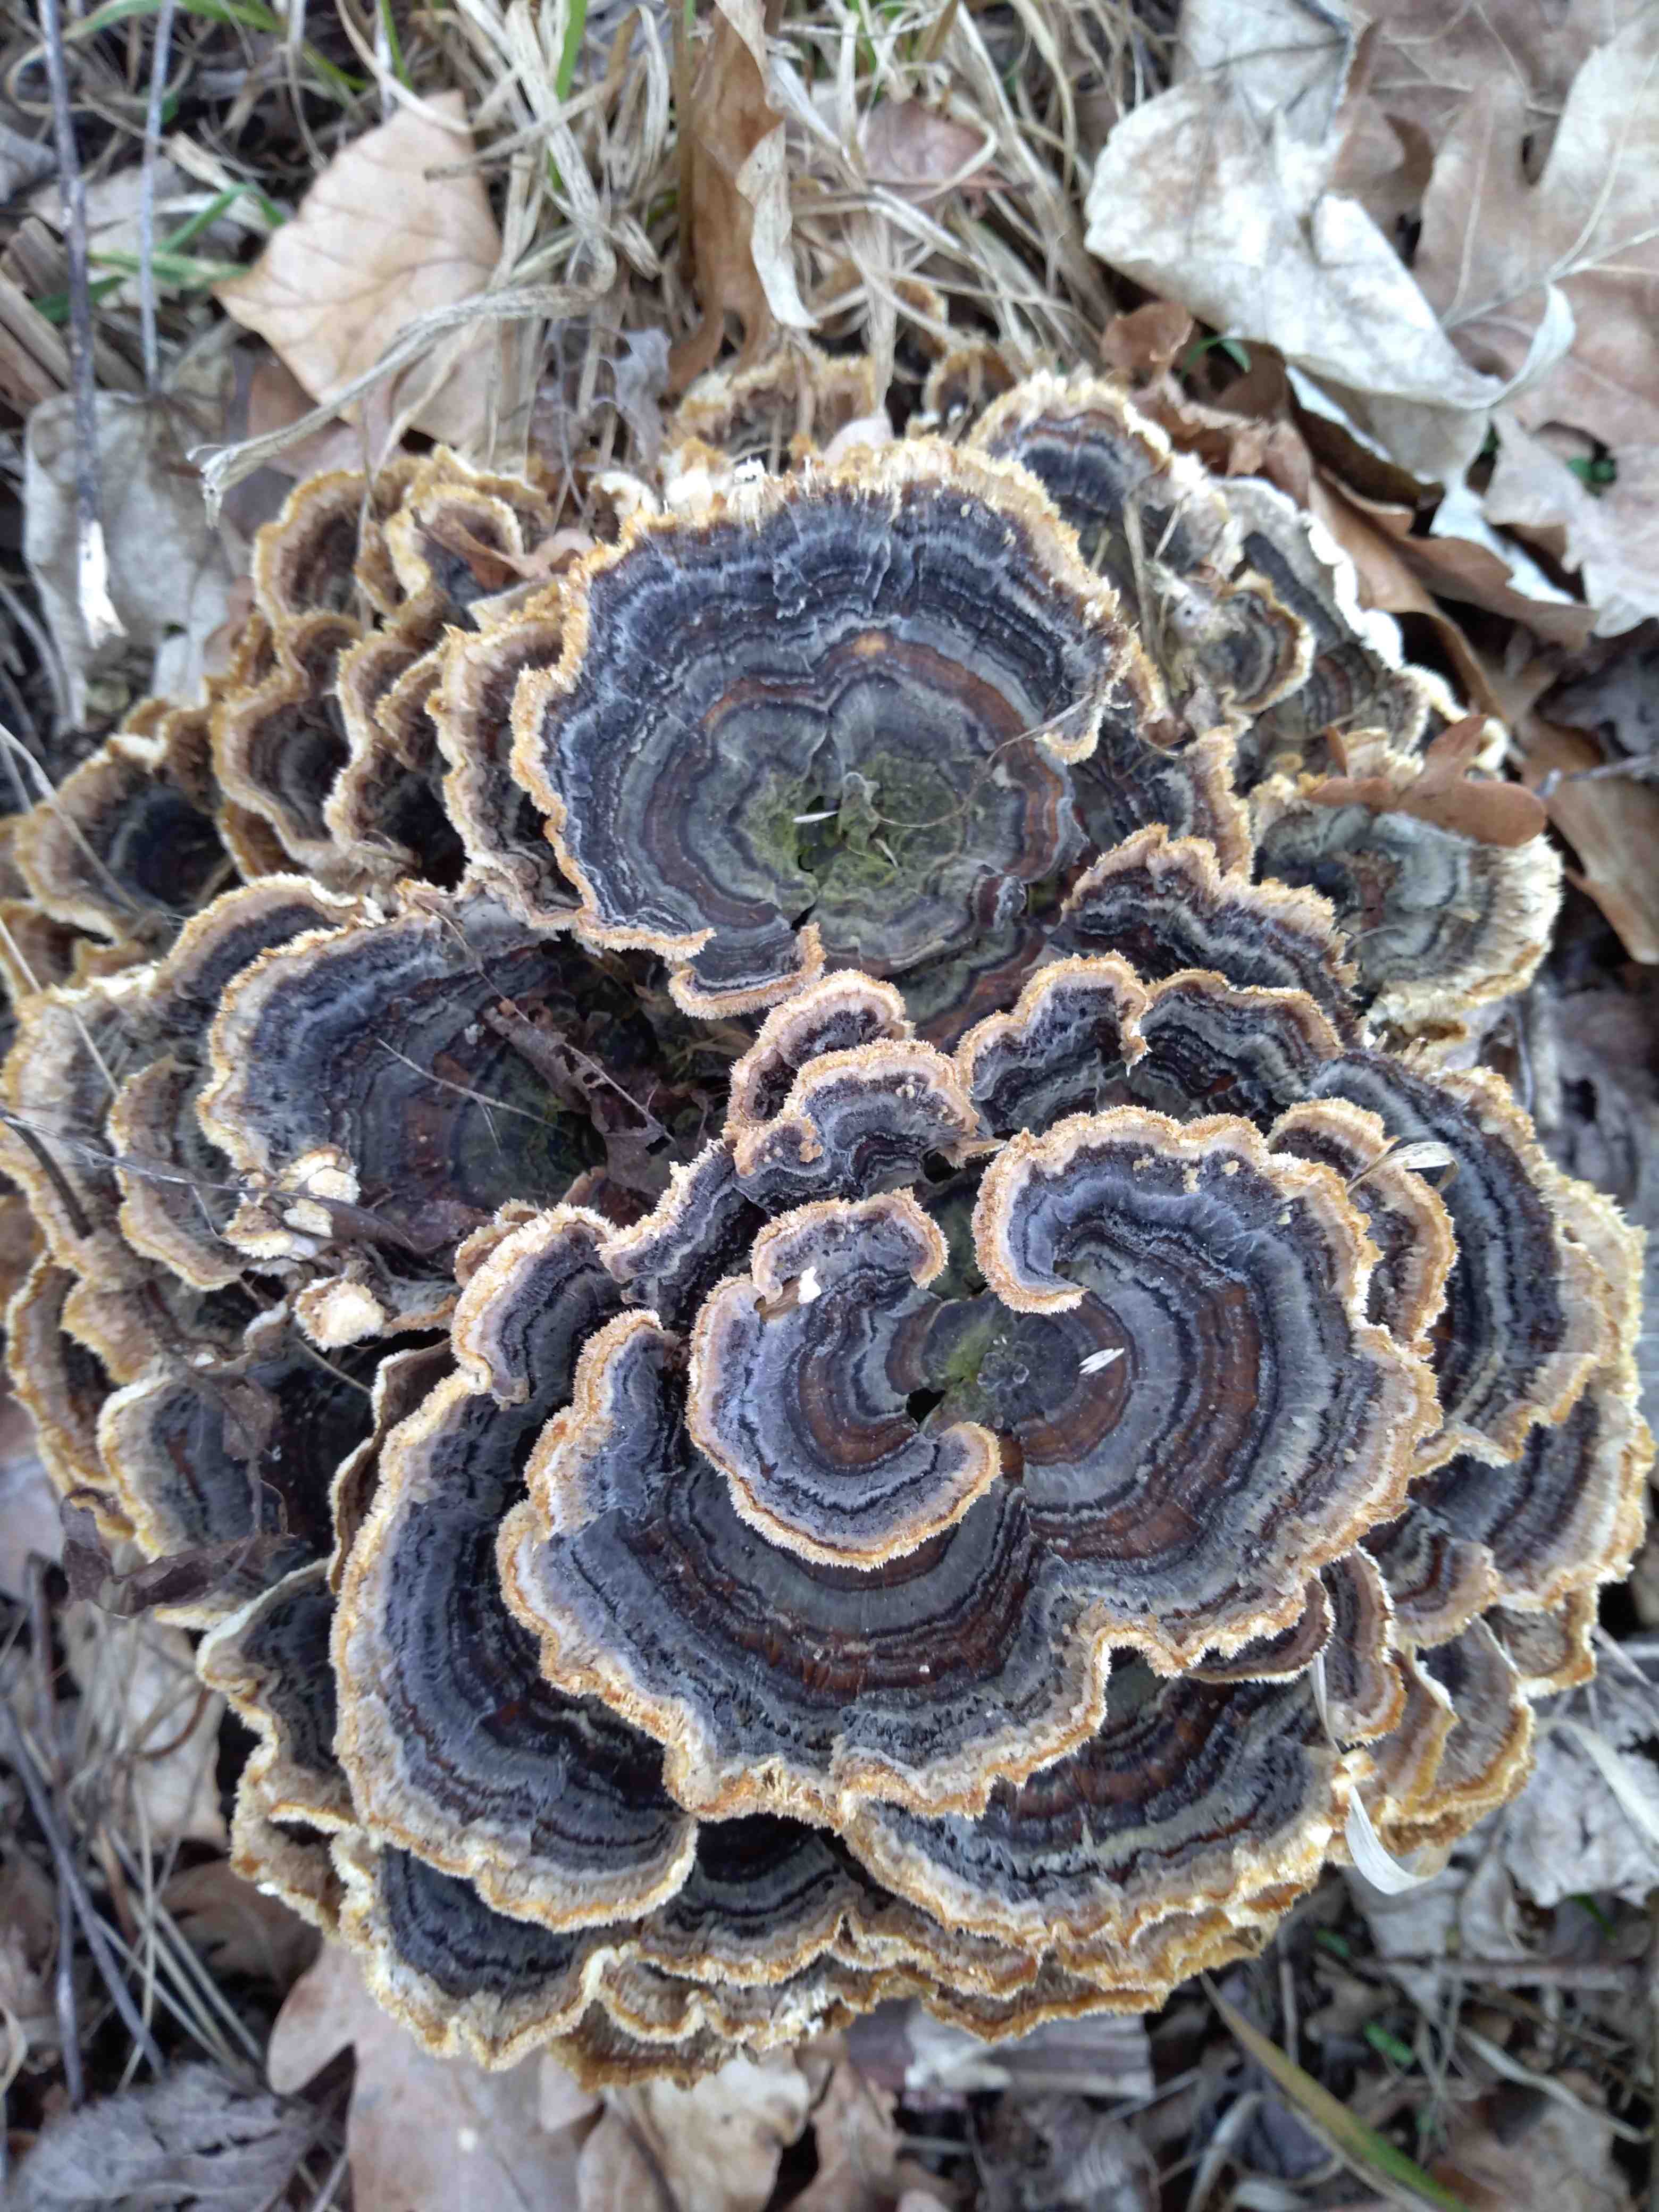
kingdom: Fungi
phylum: Basidiomycota
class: Agaricomycetes
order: Polyporales
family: Polyporaceae
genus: Trametes
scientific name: Trametes versicolor
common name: broget læderporesvamp
